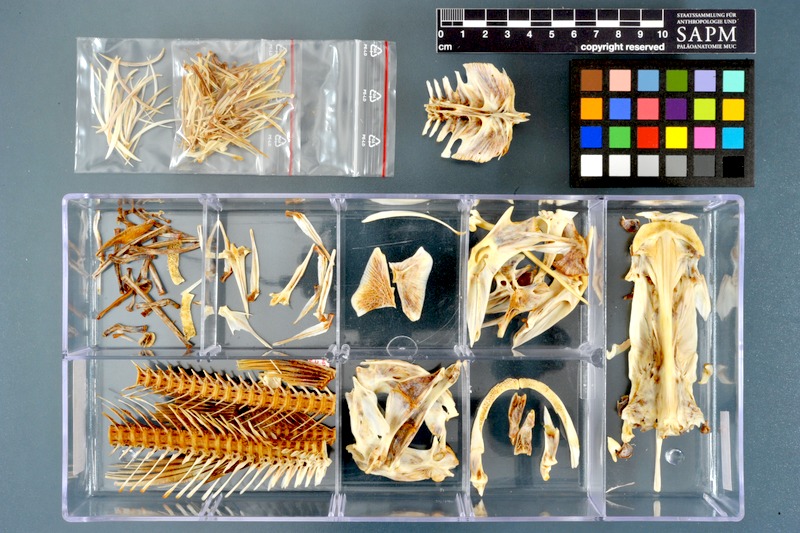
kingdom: Animalia
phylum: Chordata
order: Siluriformes
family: Bagridae
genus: Bagrus
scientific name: Bagrus docmak
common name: Silver catfish
